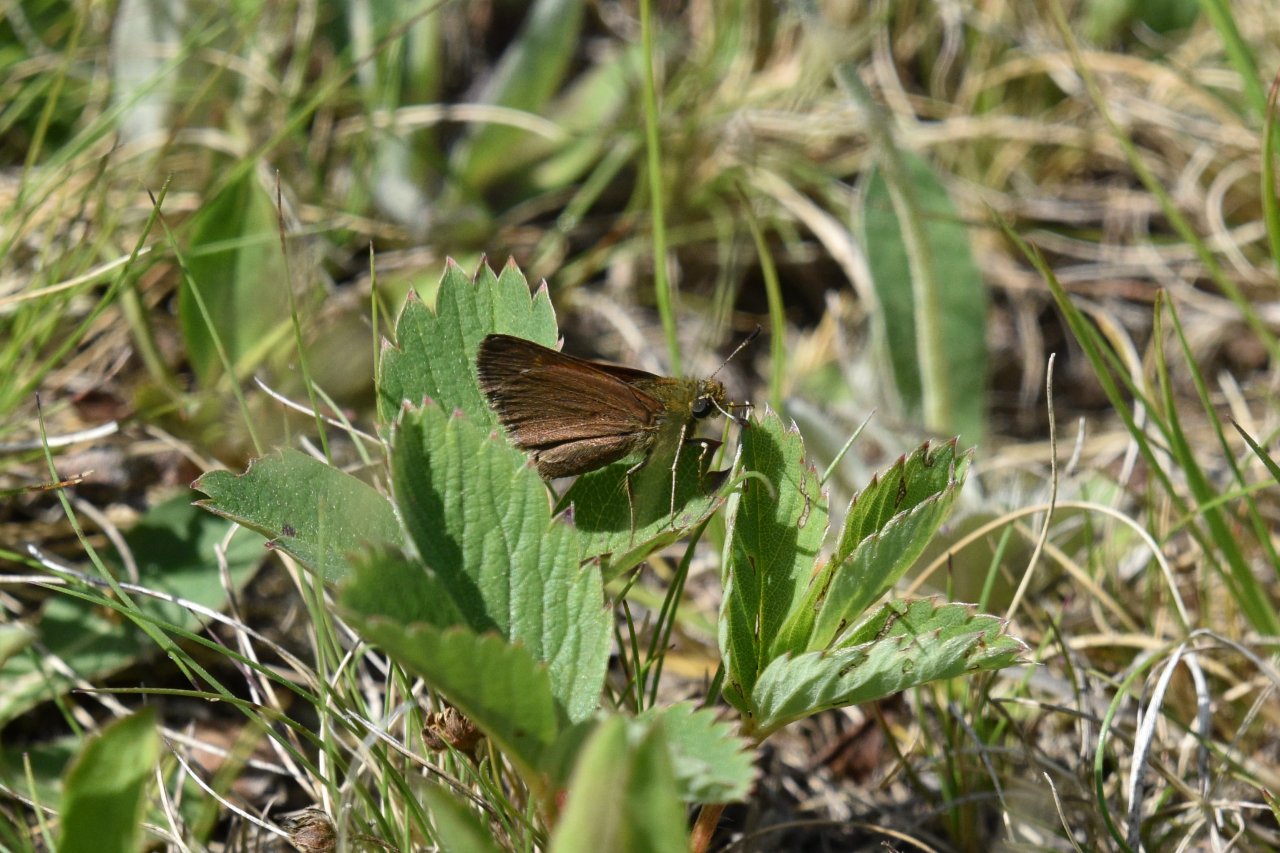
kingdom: Animalia
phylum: Arthropoda
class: Insecta
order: Lepidoptera
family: Hesperiidae
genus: Euphyes
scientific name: Euphyes vestris
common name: Dun Skipper
